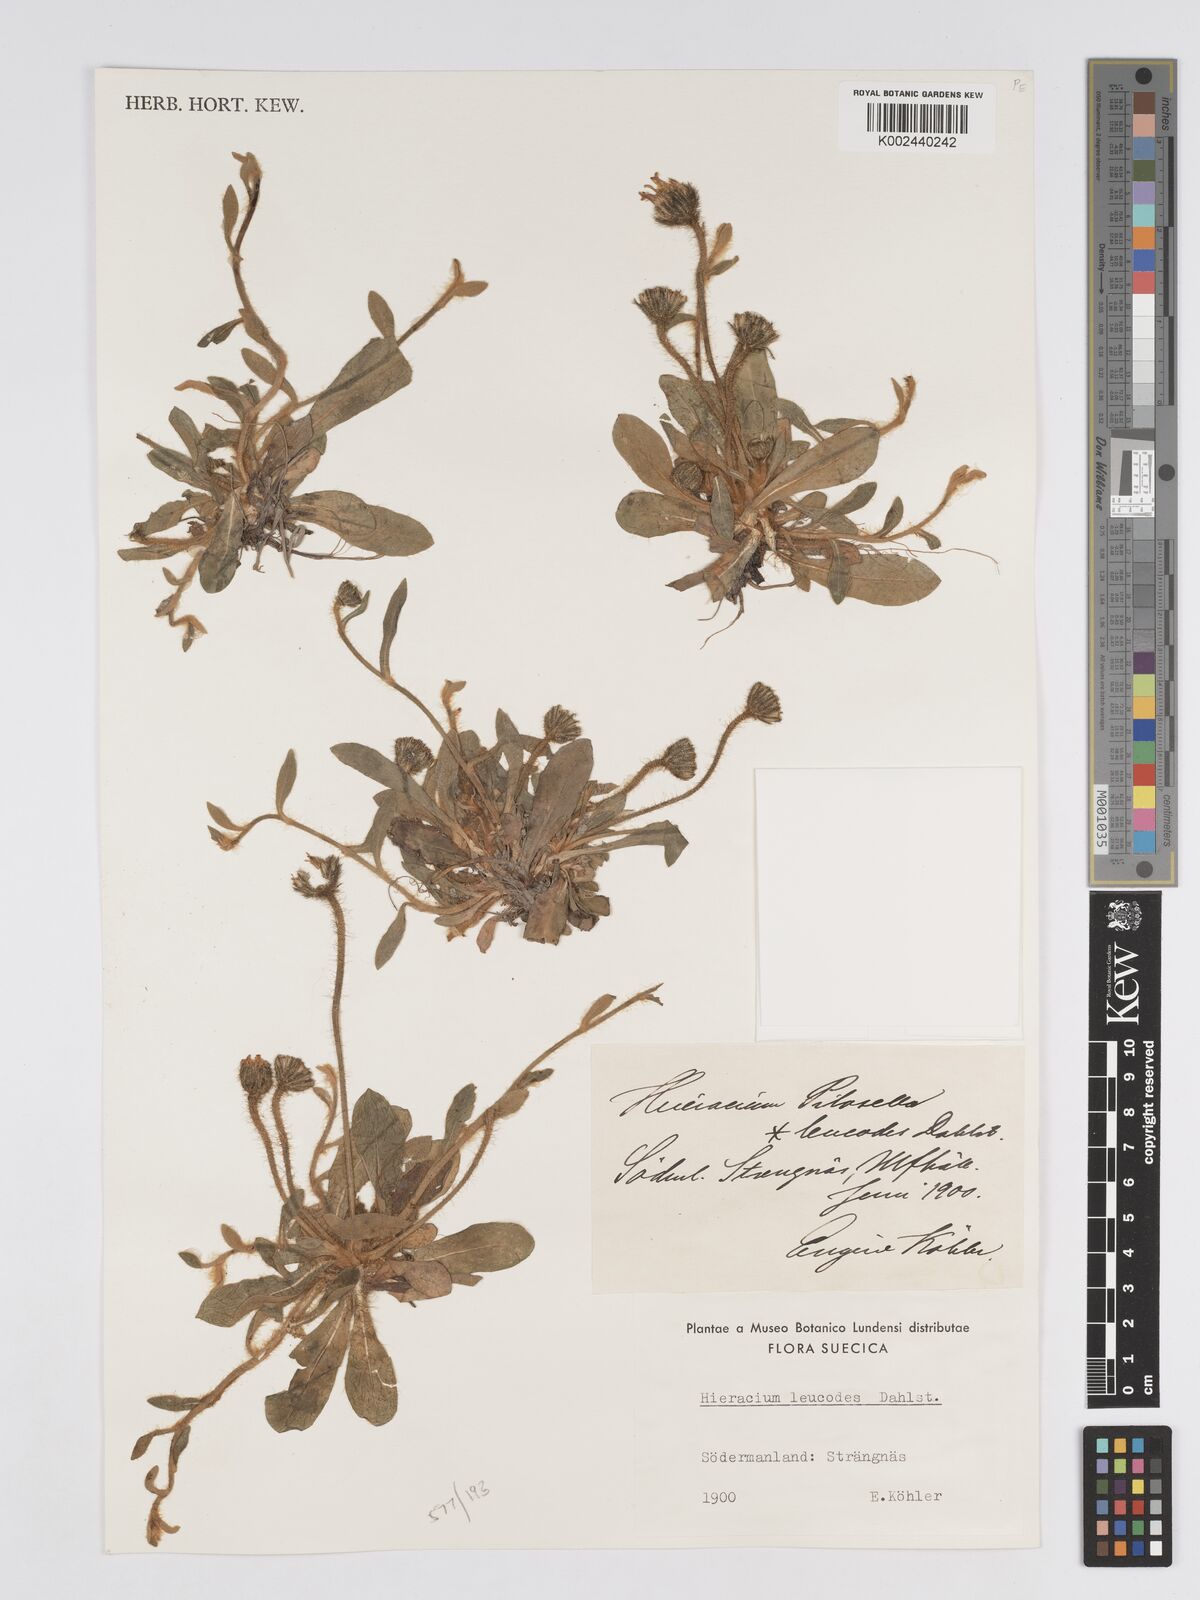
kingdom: Plantae
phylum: Tracheophyta
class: Magnoliopsida
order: Asterales
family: Asteraceae
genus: Pilosella
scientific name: Pilosella officinarum
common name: Mouse-ear hawkweed
